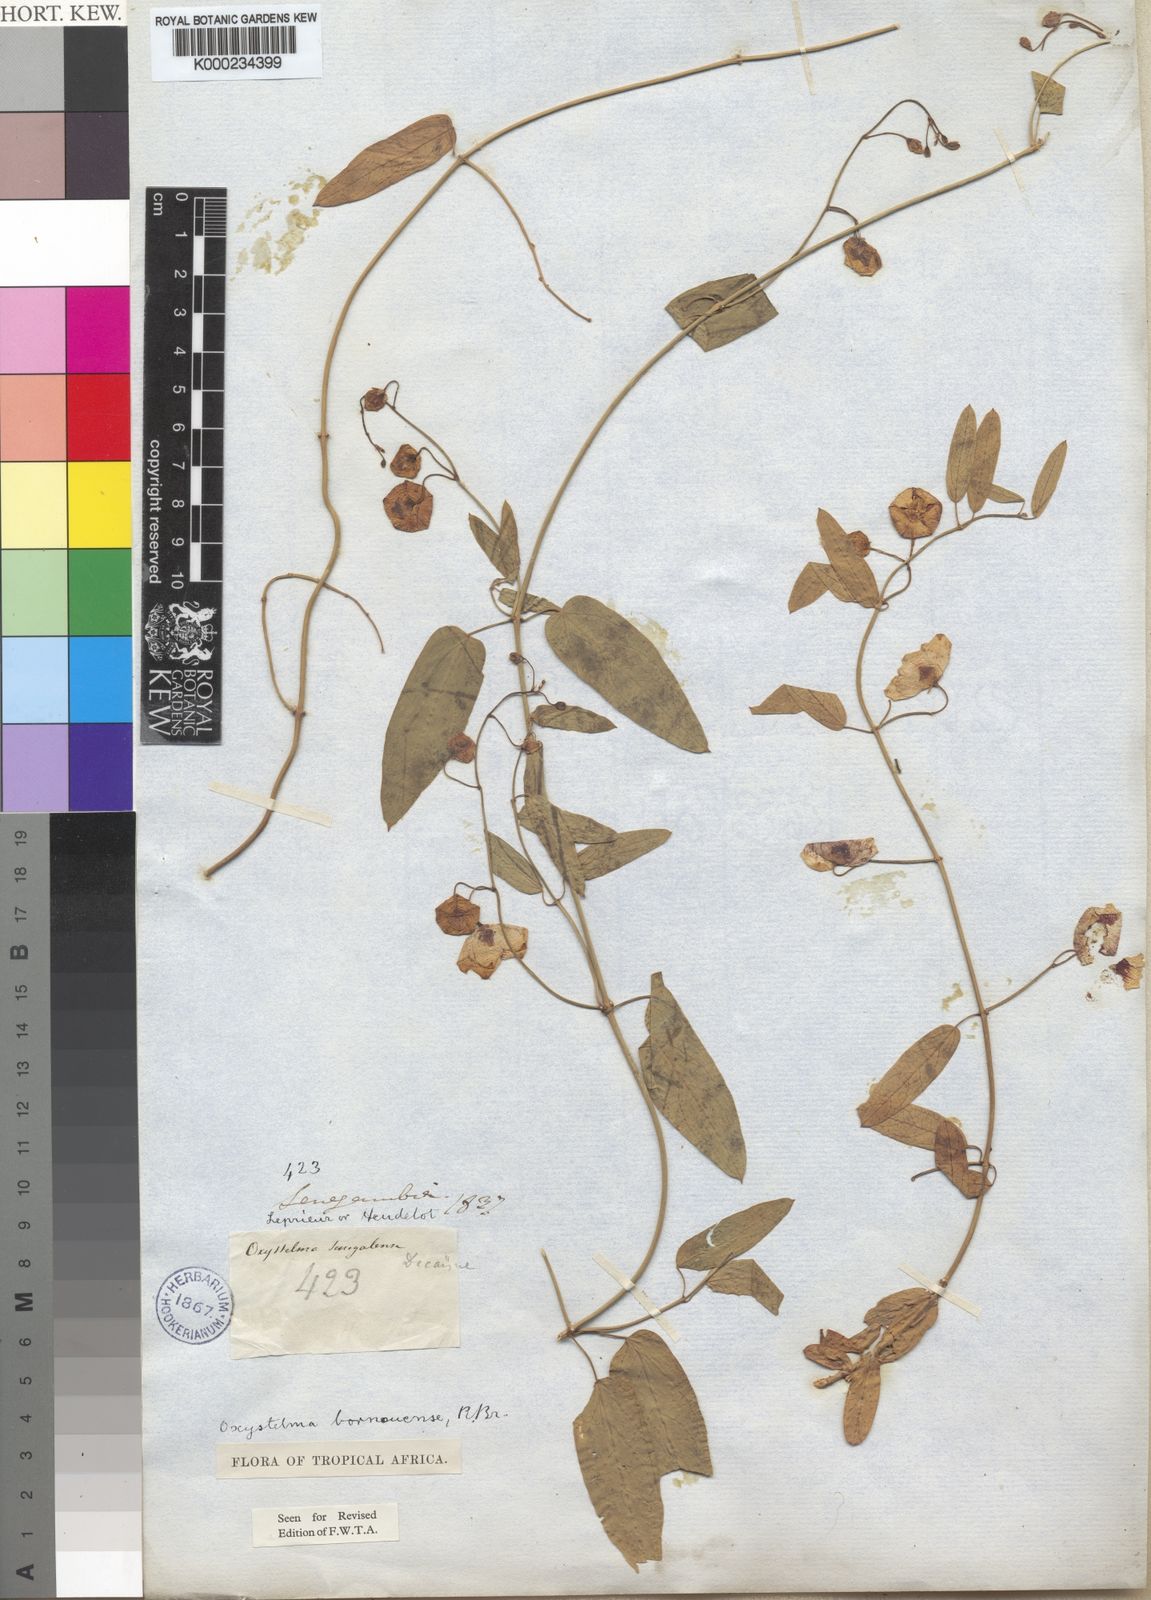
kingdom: Plantae
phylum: Tracheophyta
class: Magnoliopsida
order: Gentianales
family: Apocynaceae
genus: Oxystelma
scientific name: Oxystelma bornouense
